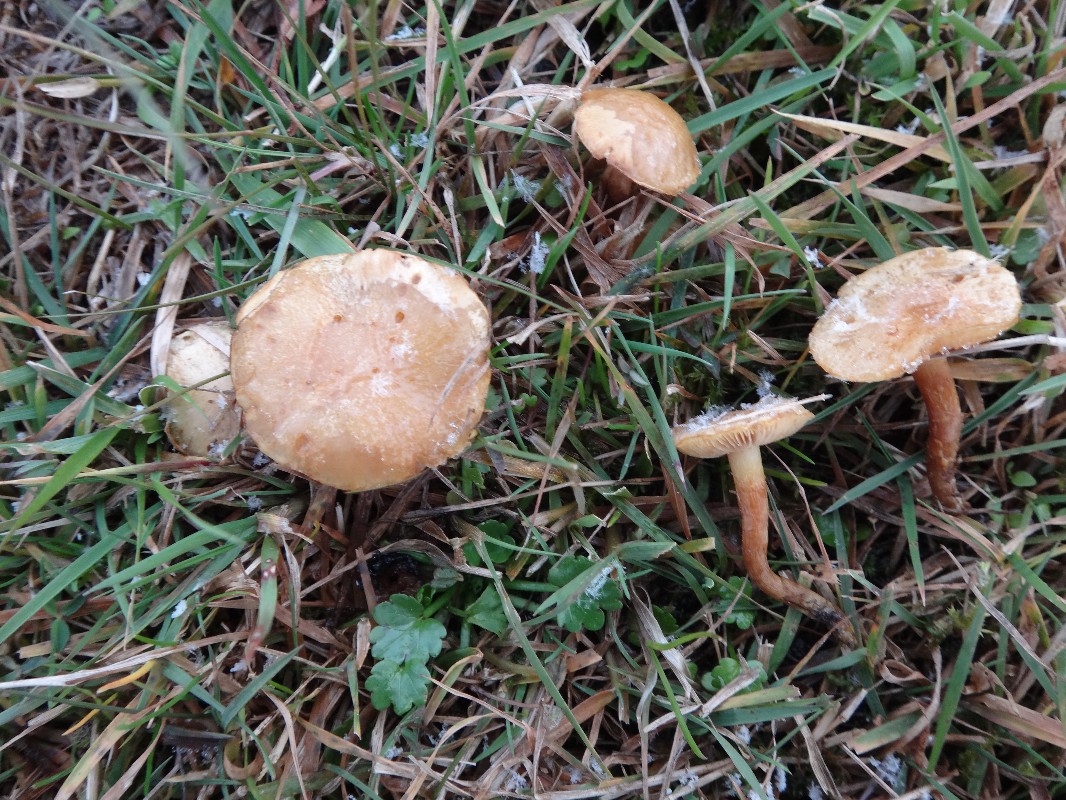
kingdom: Fungi
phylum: Basidiomycota
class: Agaricomycetes
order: Agaricales
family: Strophariaceae
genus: Pholiota
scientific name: Pholiota conissans
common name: pile-skælhat
